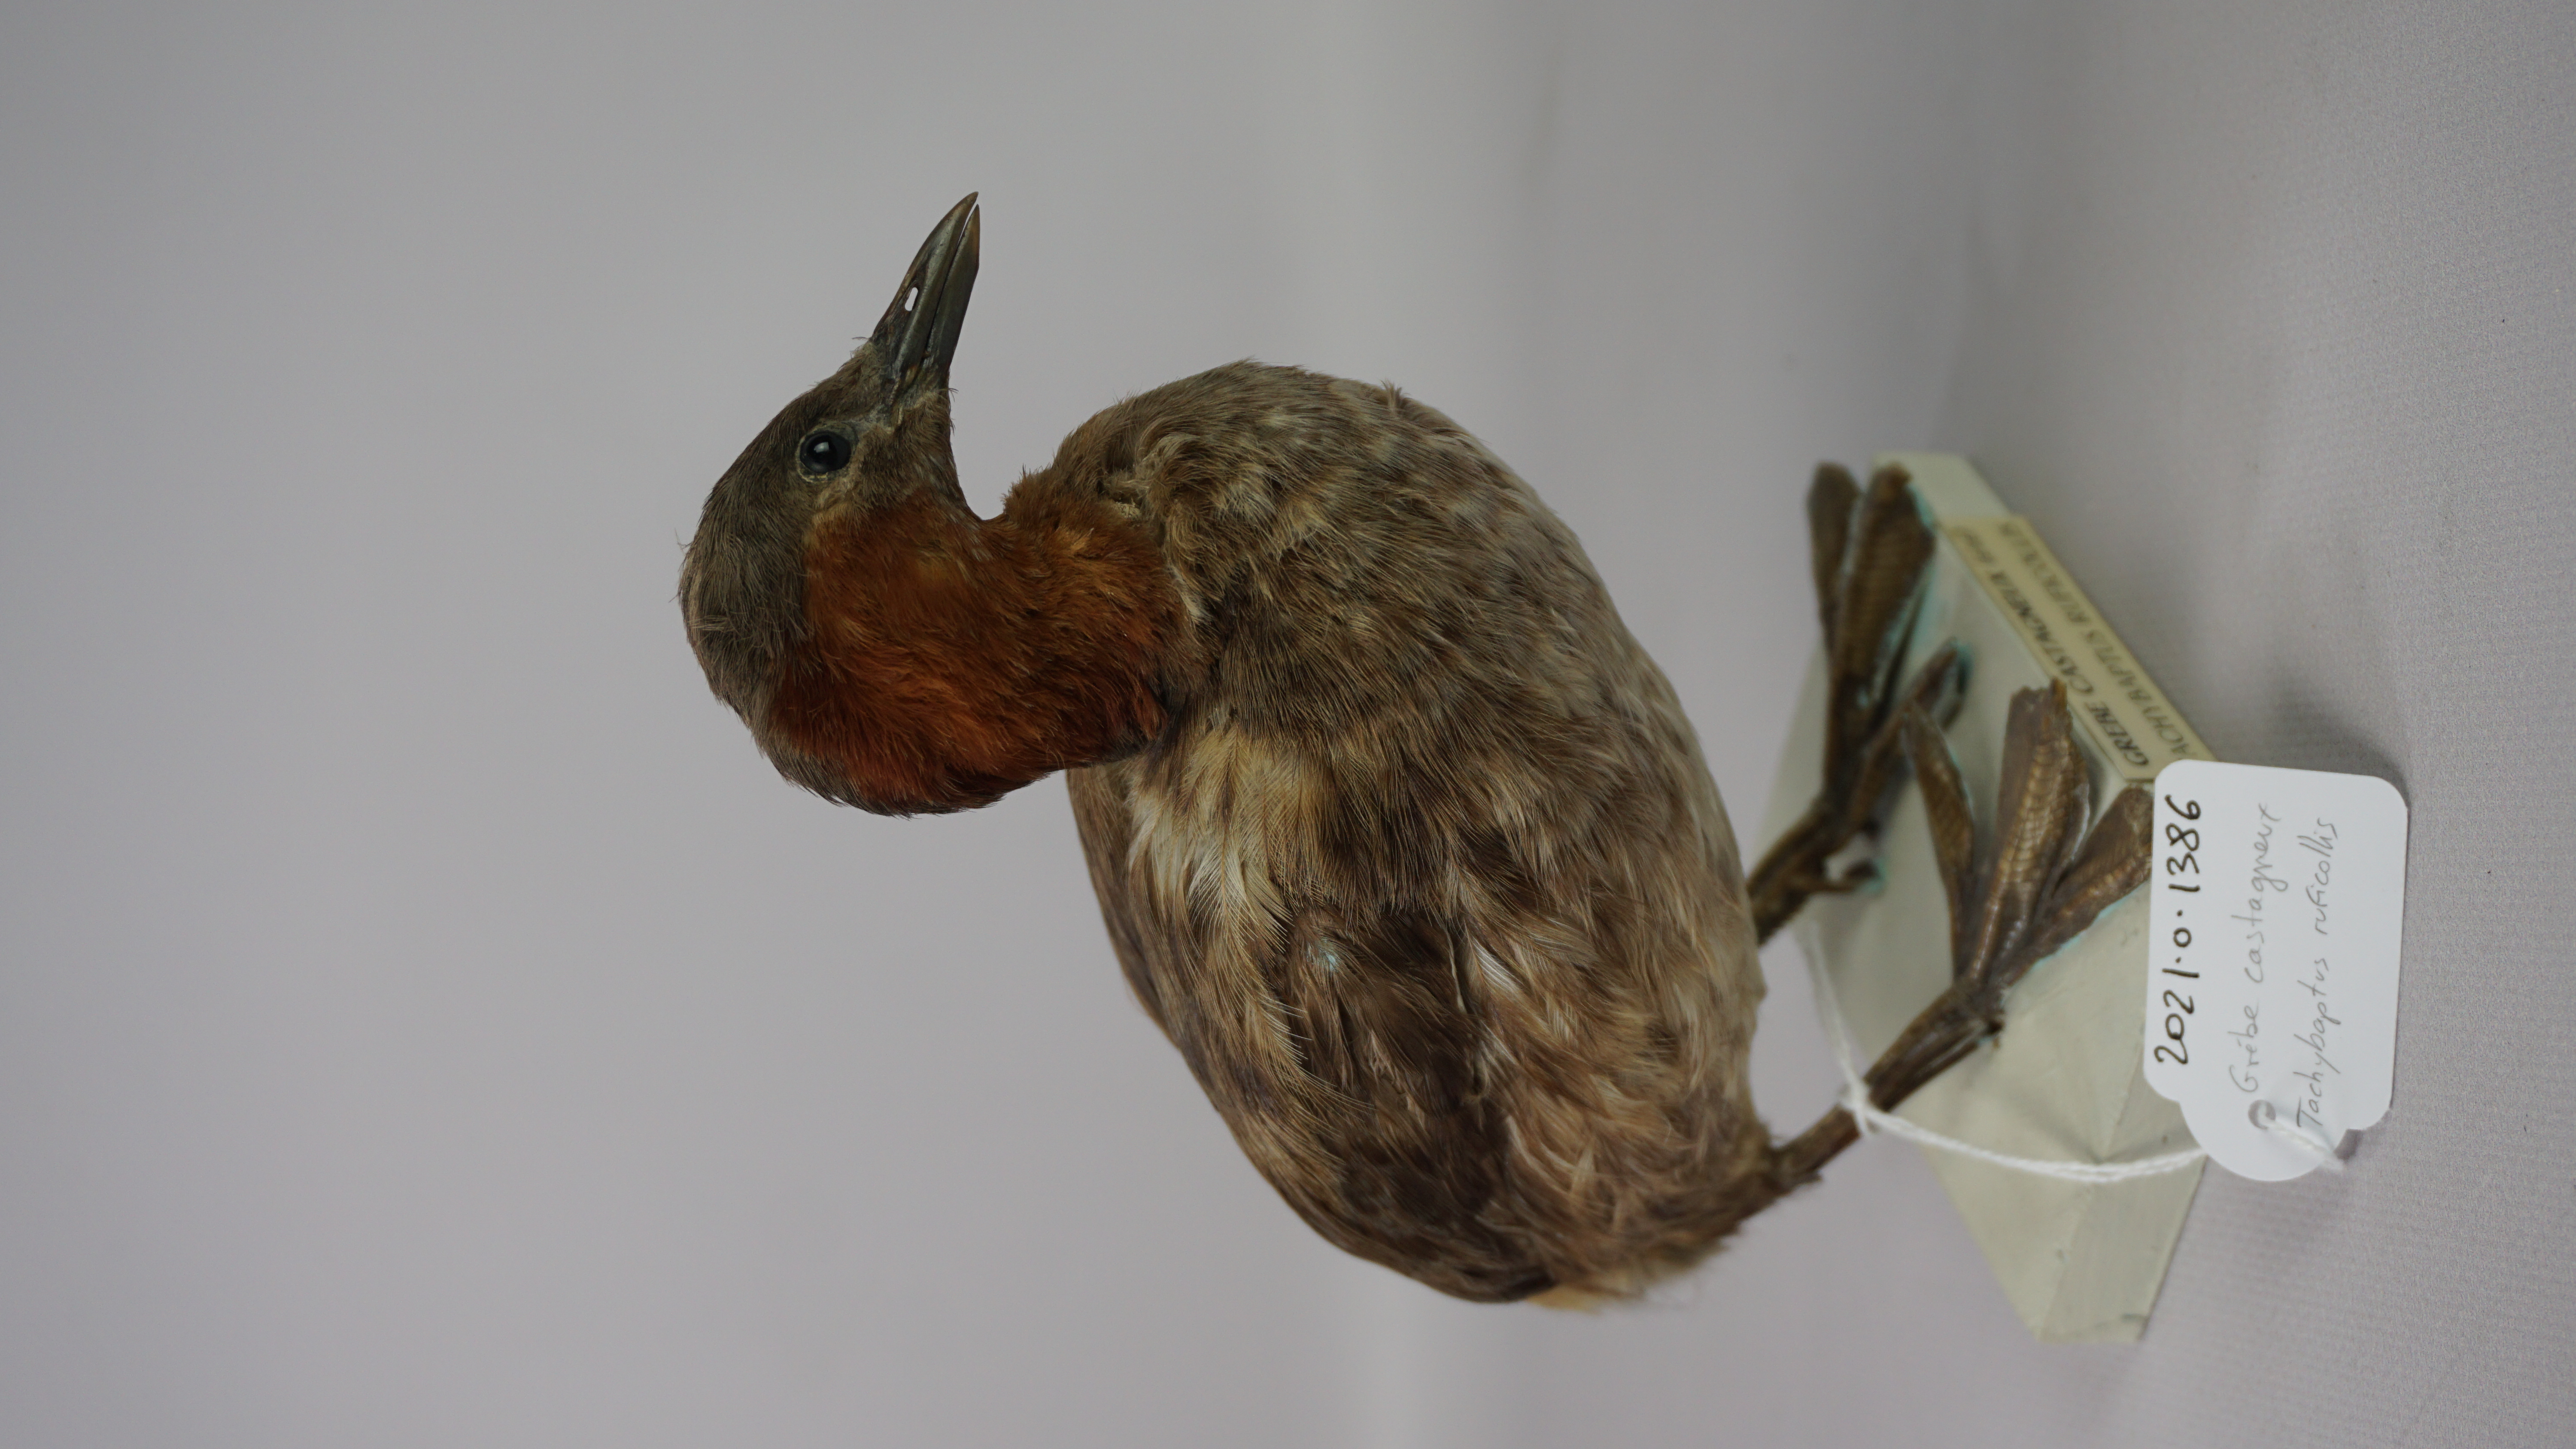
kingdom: Animalia
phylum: Chordata
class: Aves
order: Podicipediformes
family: Podicipedidae
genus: Tachybaptus
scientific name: Tachybaptus ruficollis
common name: Little grebe
